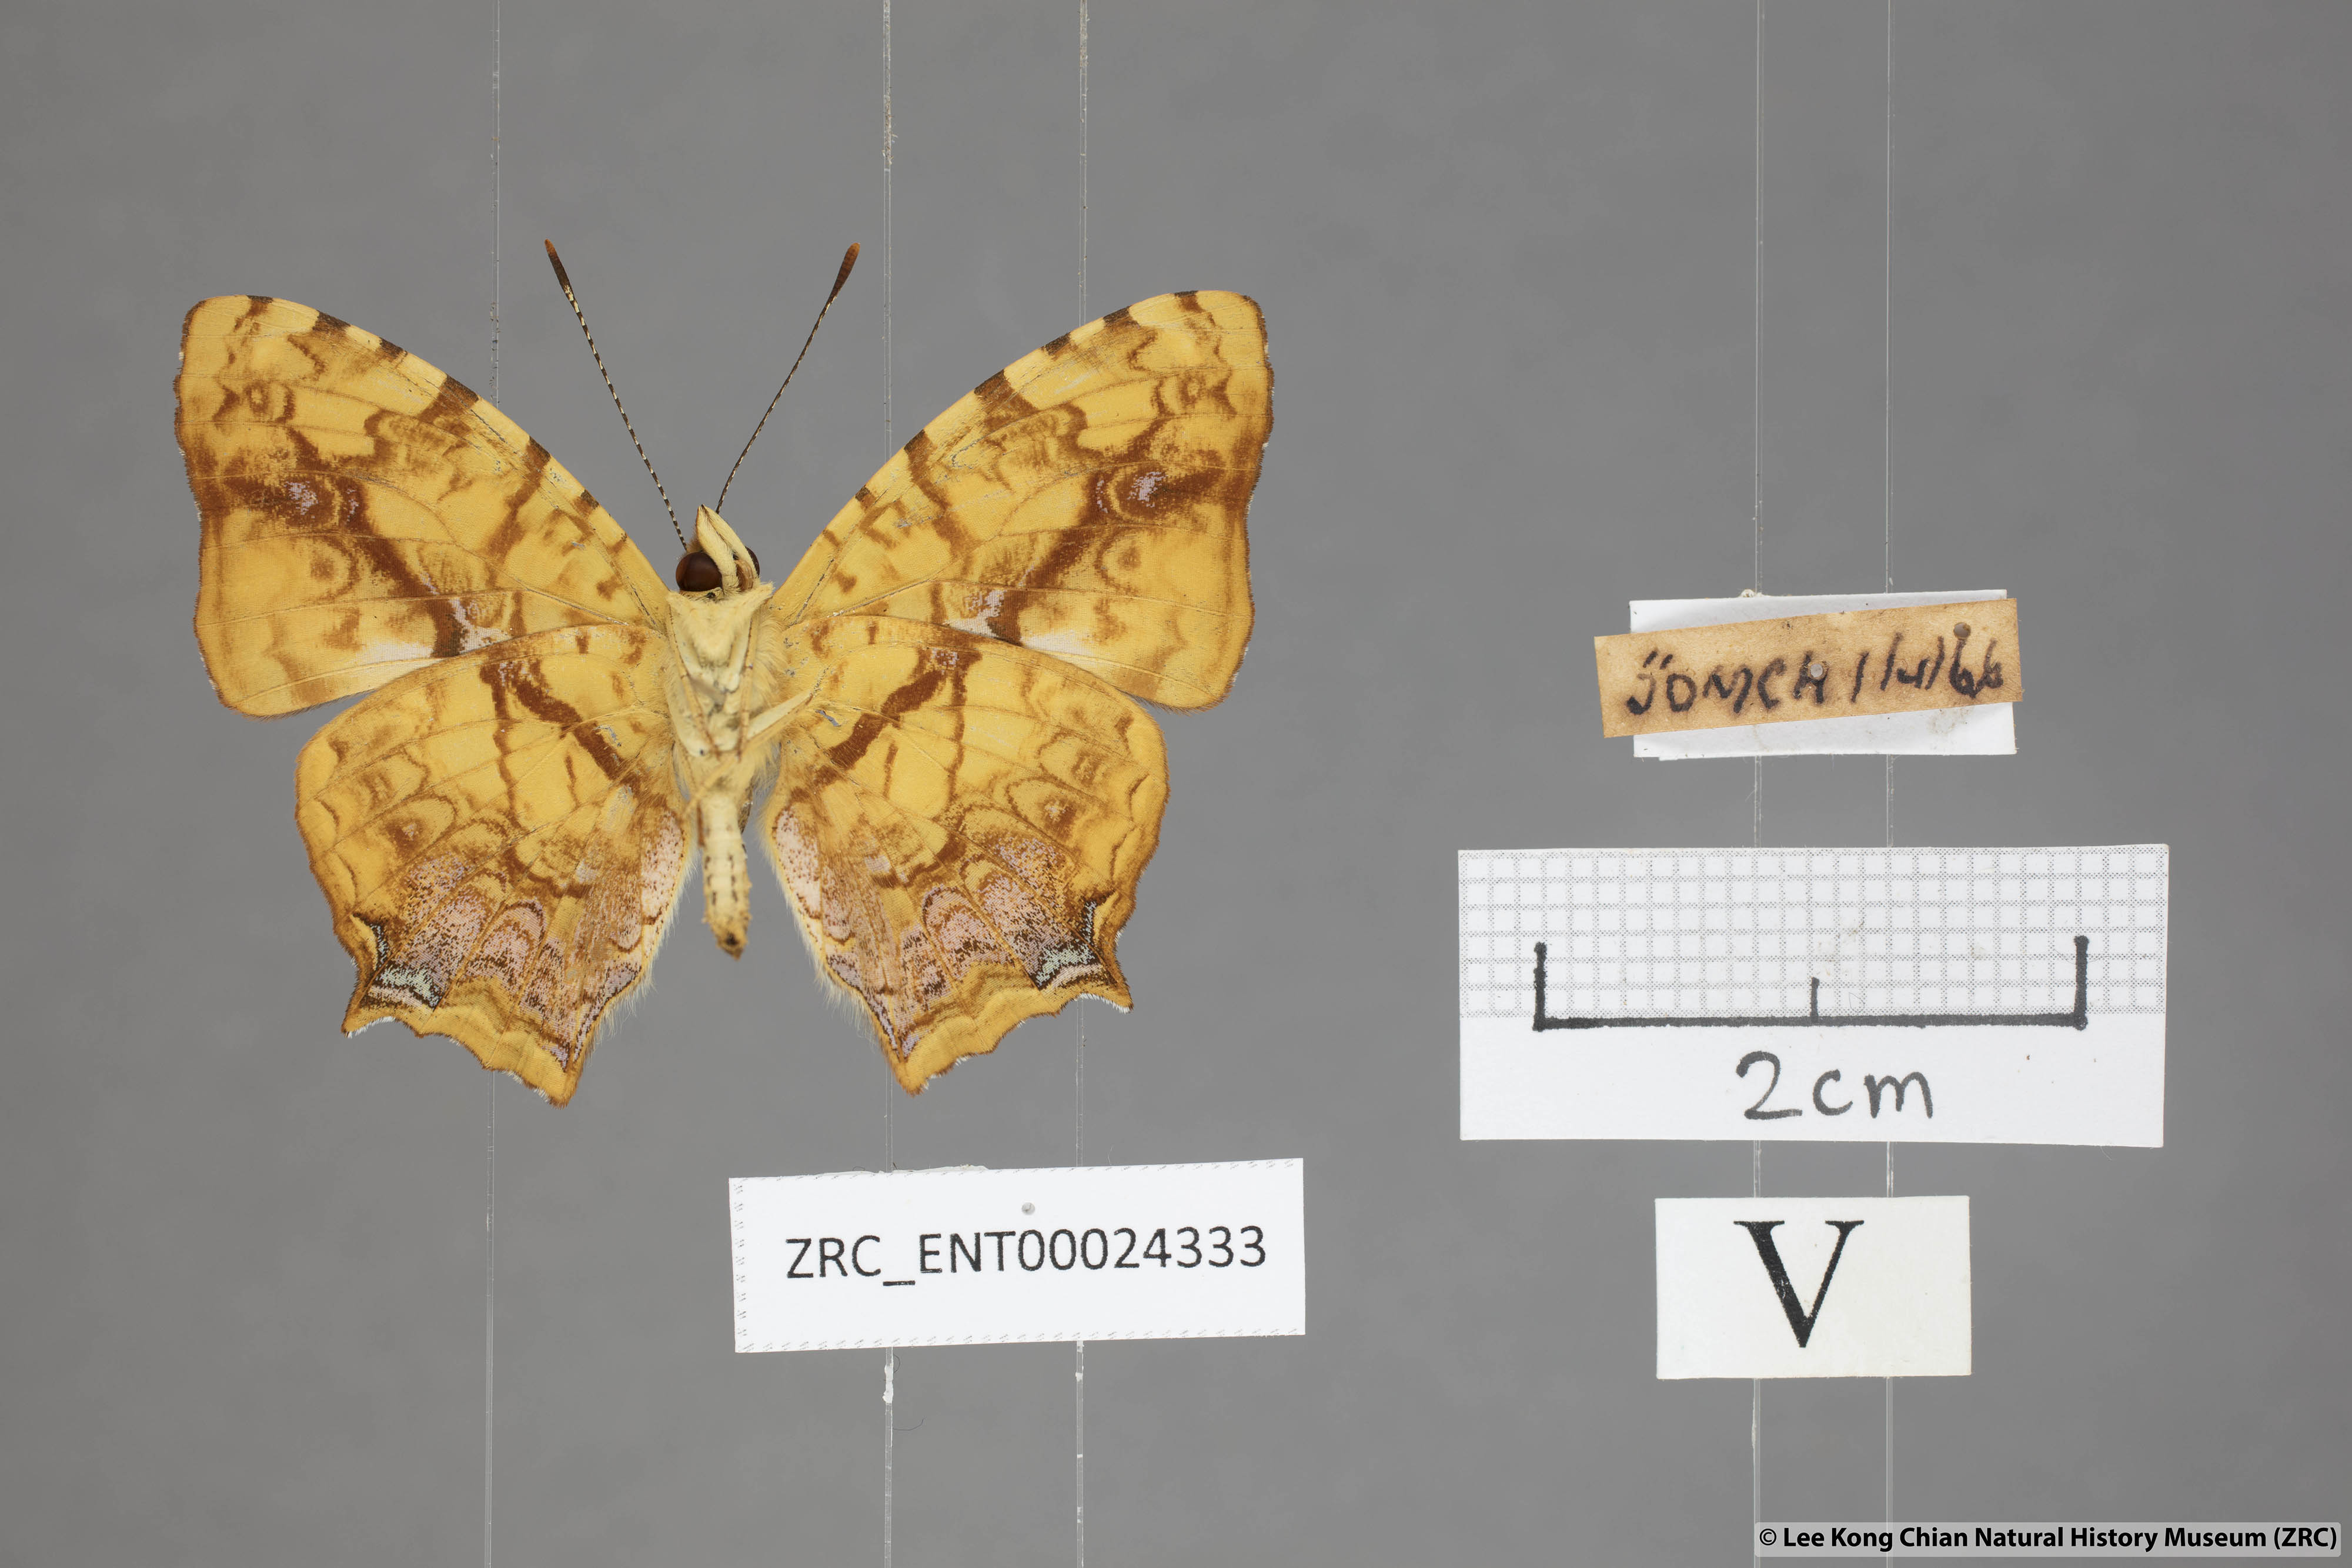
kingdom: Animalia
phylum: Arthropoda
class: Insecta
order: Lepidoptera
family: Nymphalidae
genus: Symbrenthia
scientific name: Symbrenthia hippoclus
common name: Common jester
